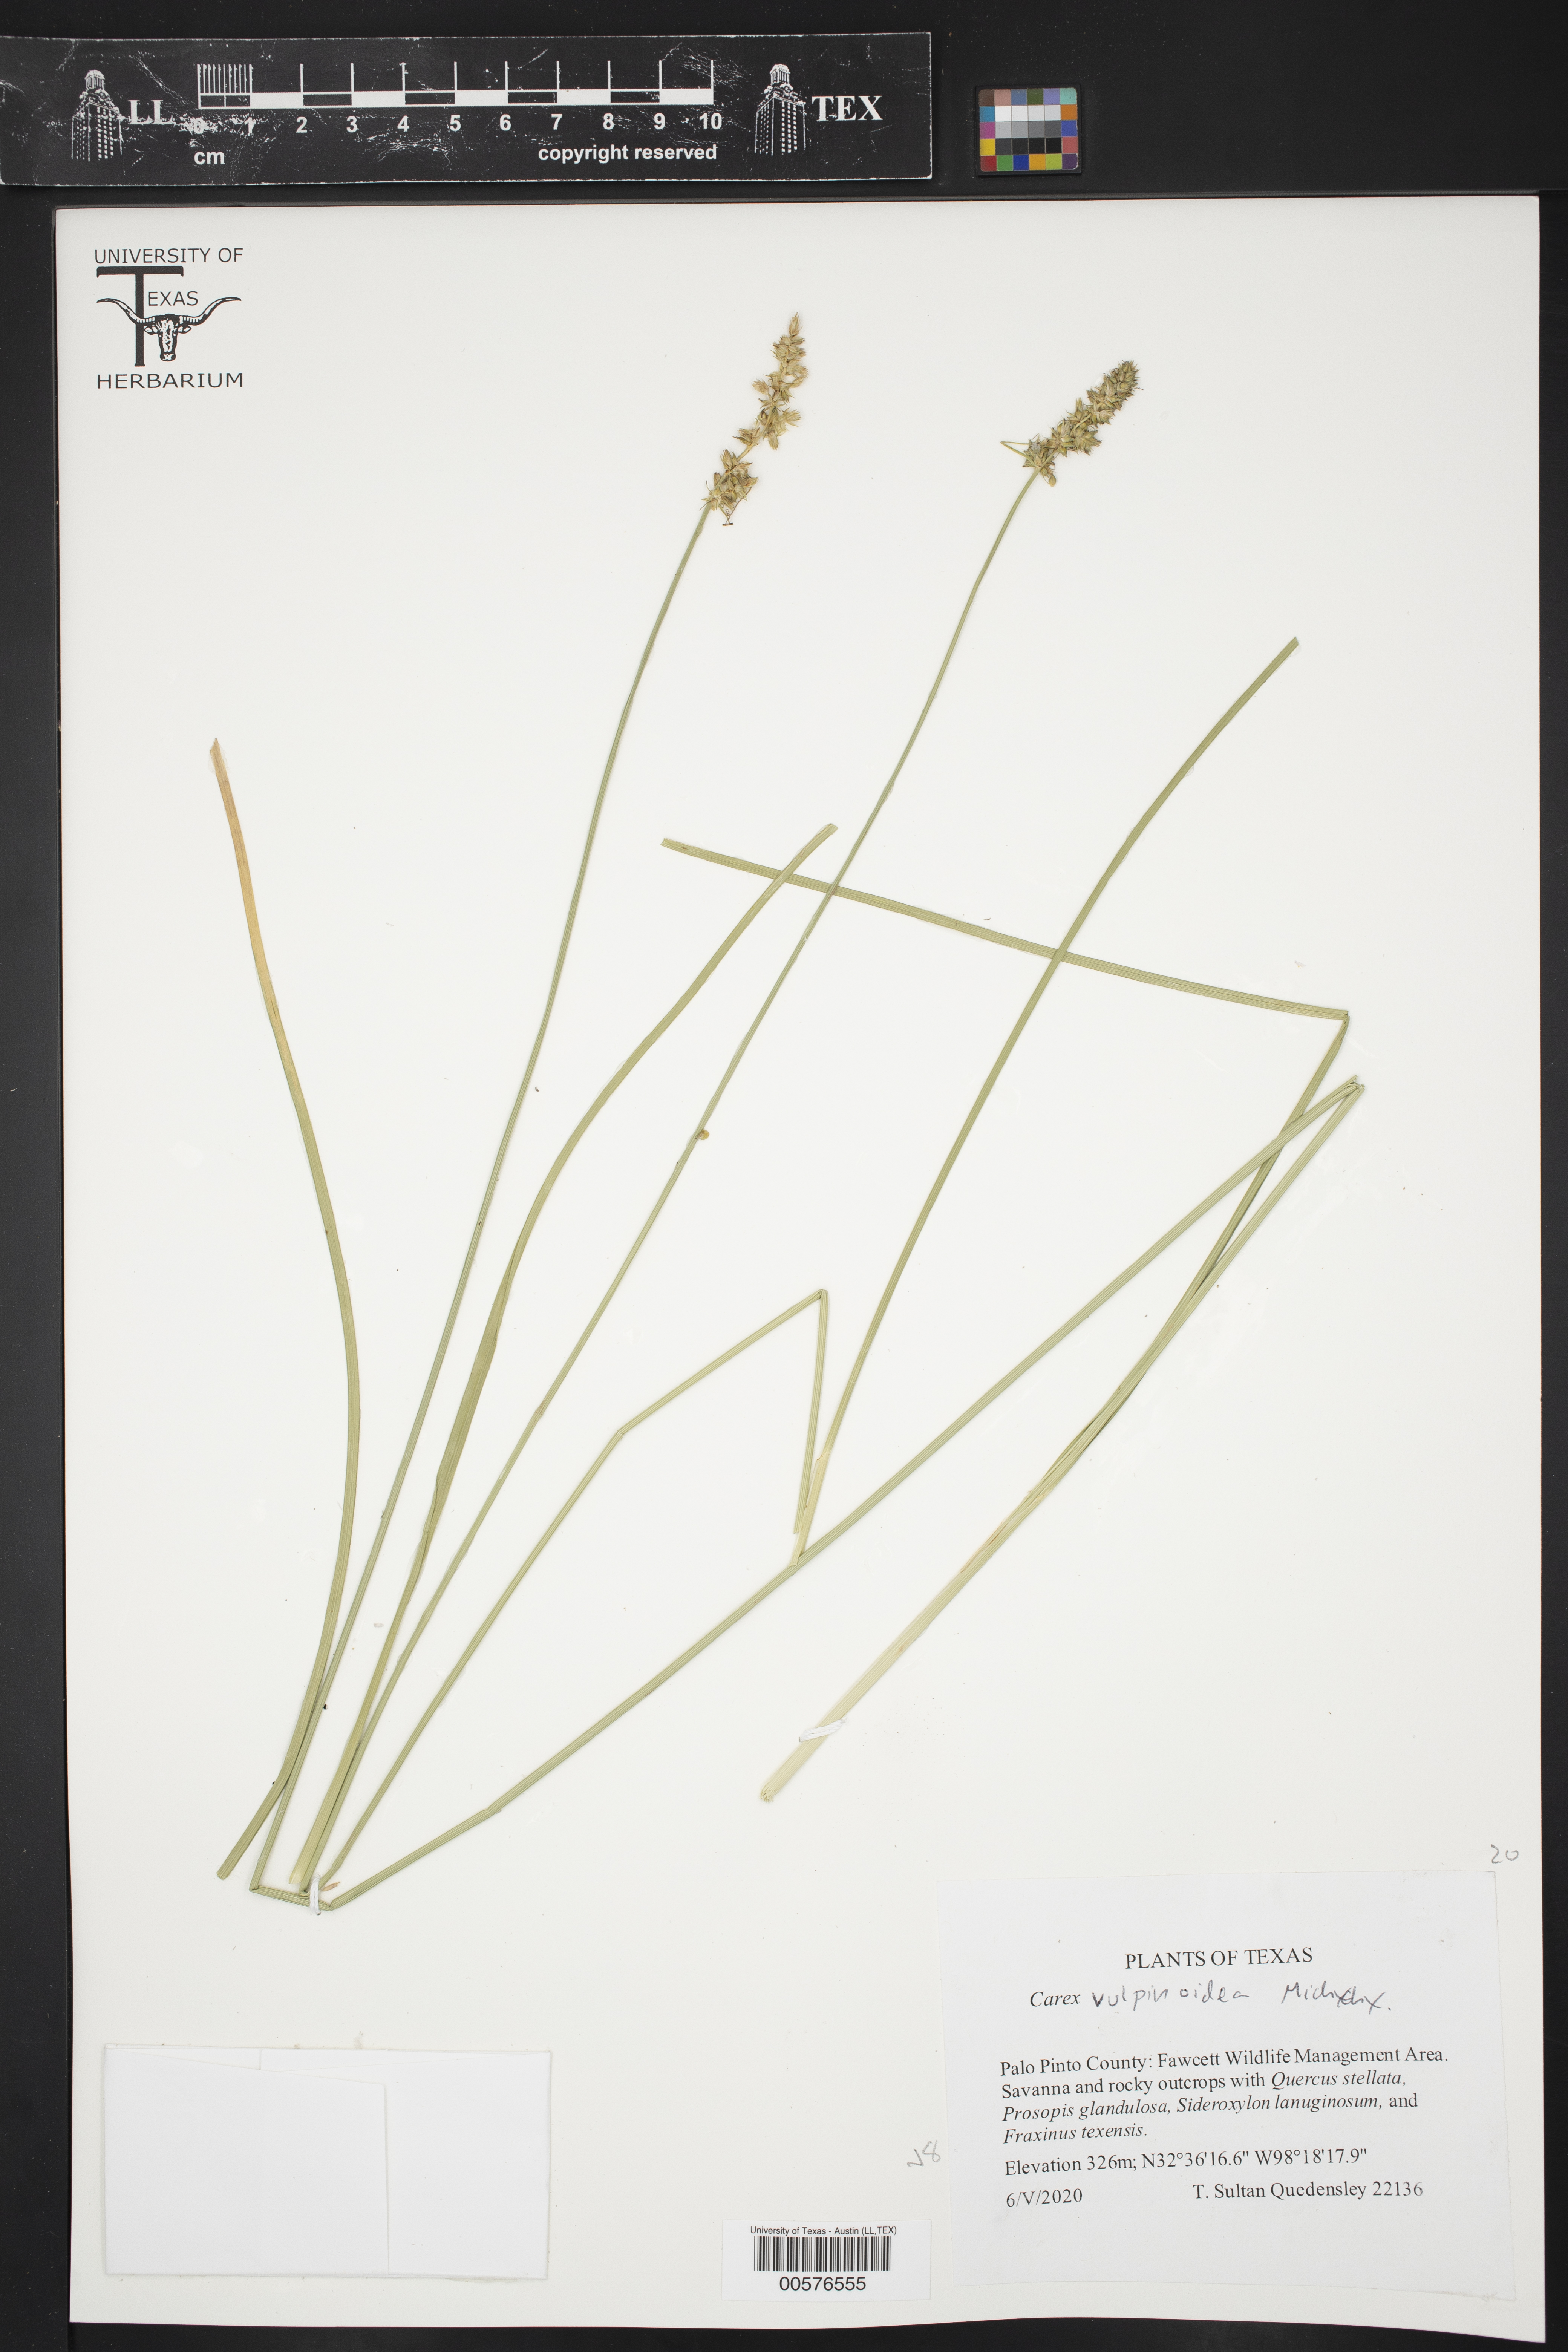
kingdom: Plantae
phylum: Tracheophyta
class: Liliopsida
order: Poales
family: Cyperaceae
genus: Carex
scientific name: Carex vulpinoidea
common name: American fox-sedge
